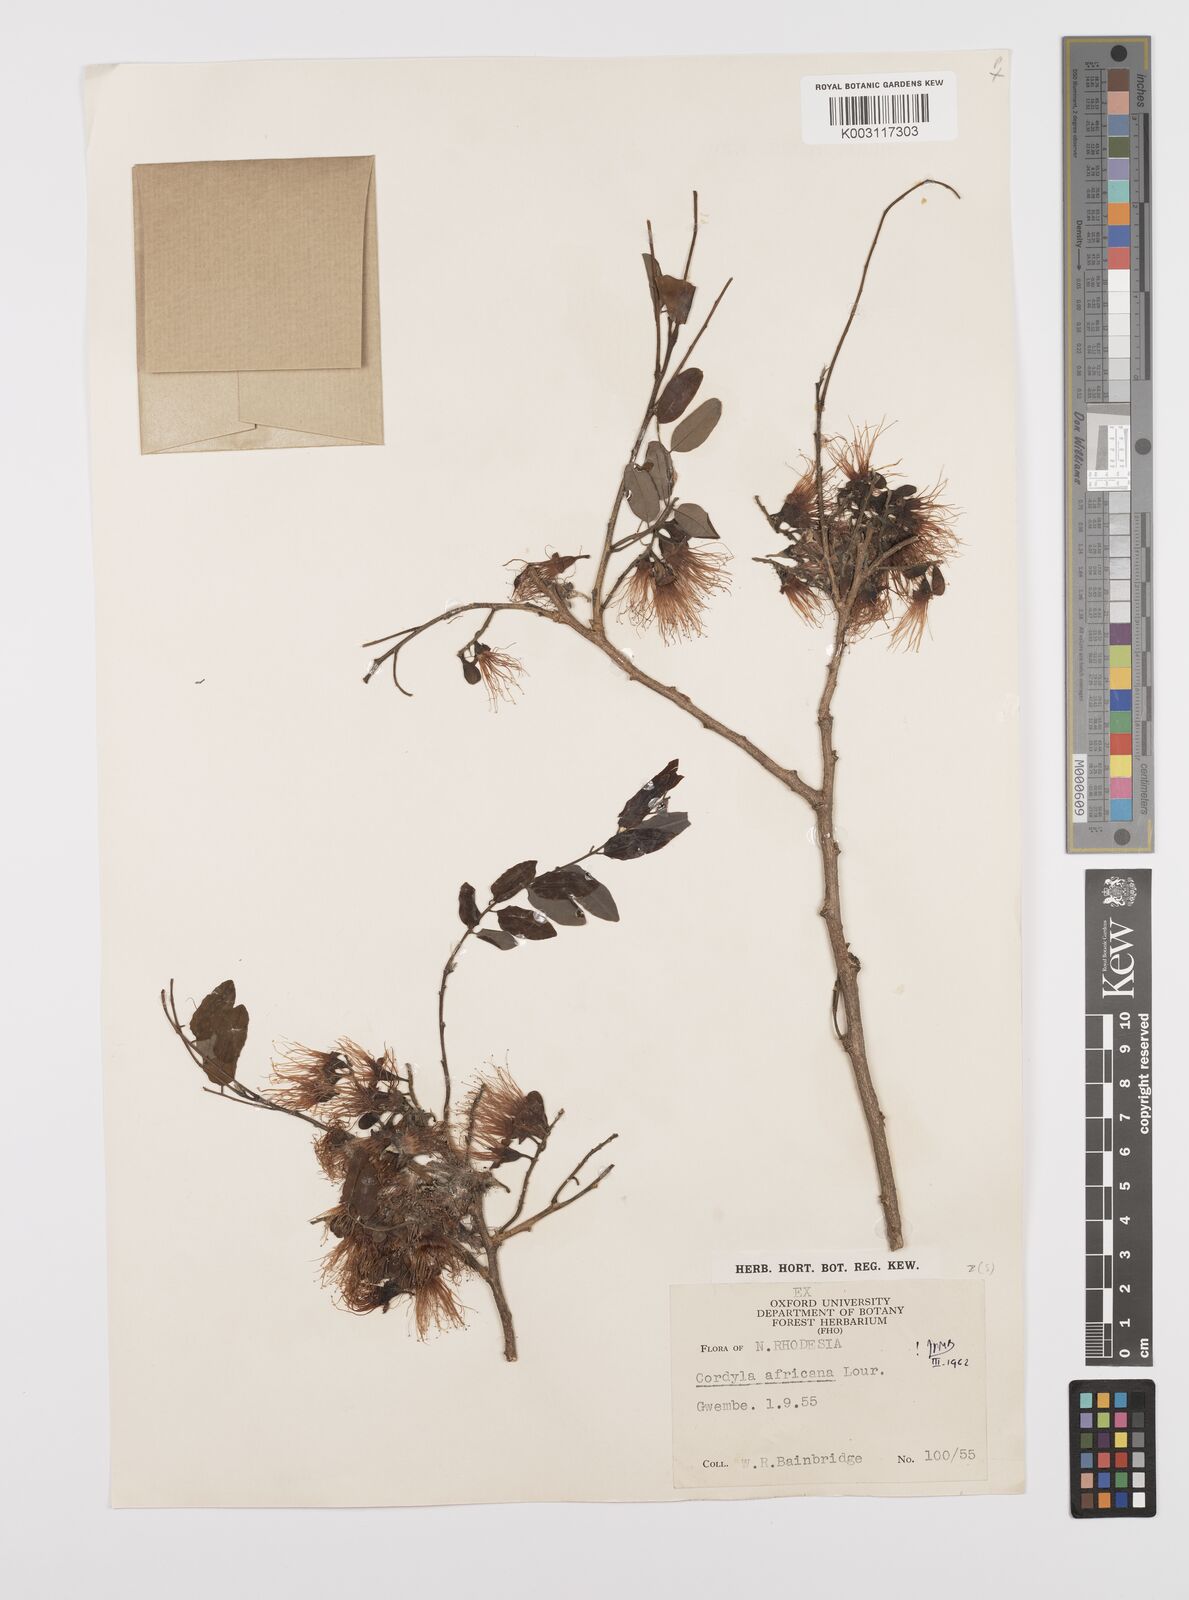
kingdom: Plantae
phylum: Tracheophyta
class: Magnoliopsida
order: Fabales
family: Fabaceae
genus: Cordyla
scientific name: Cordyla africana
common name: Wild mango
